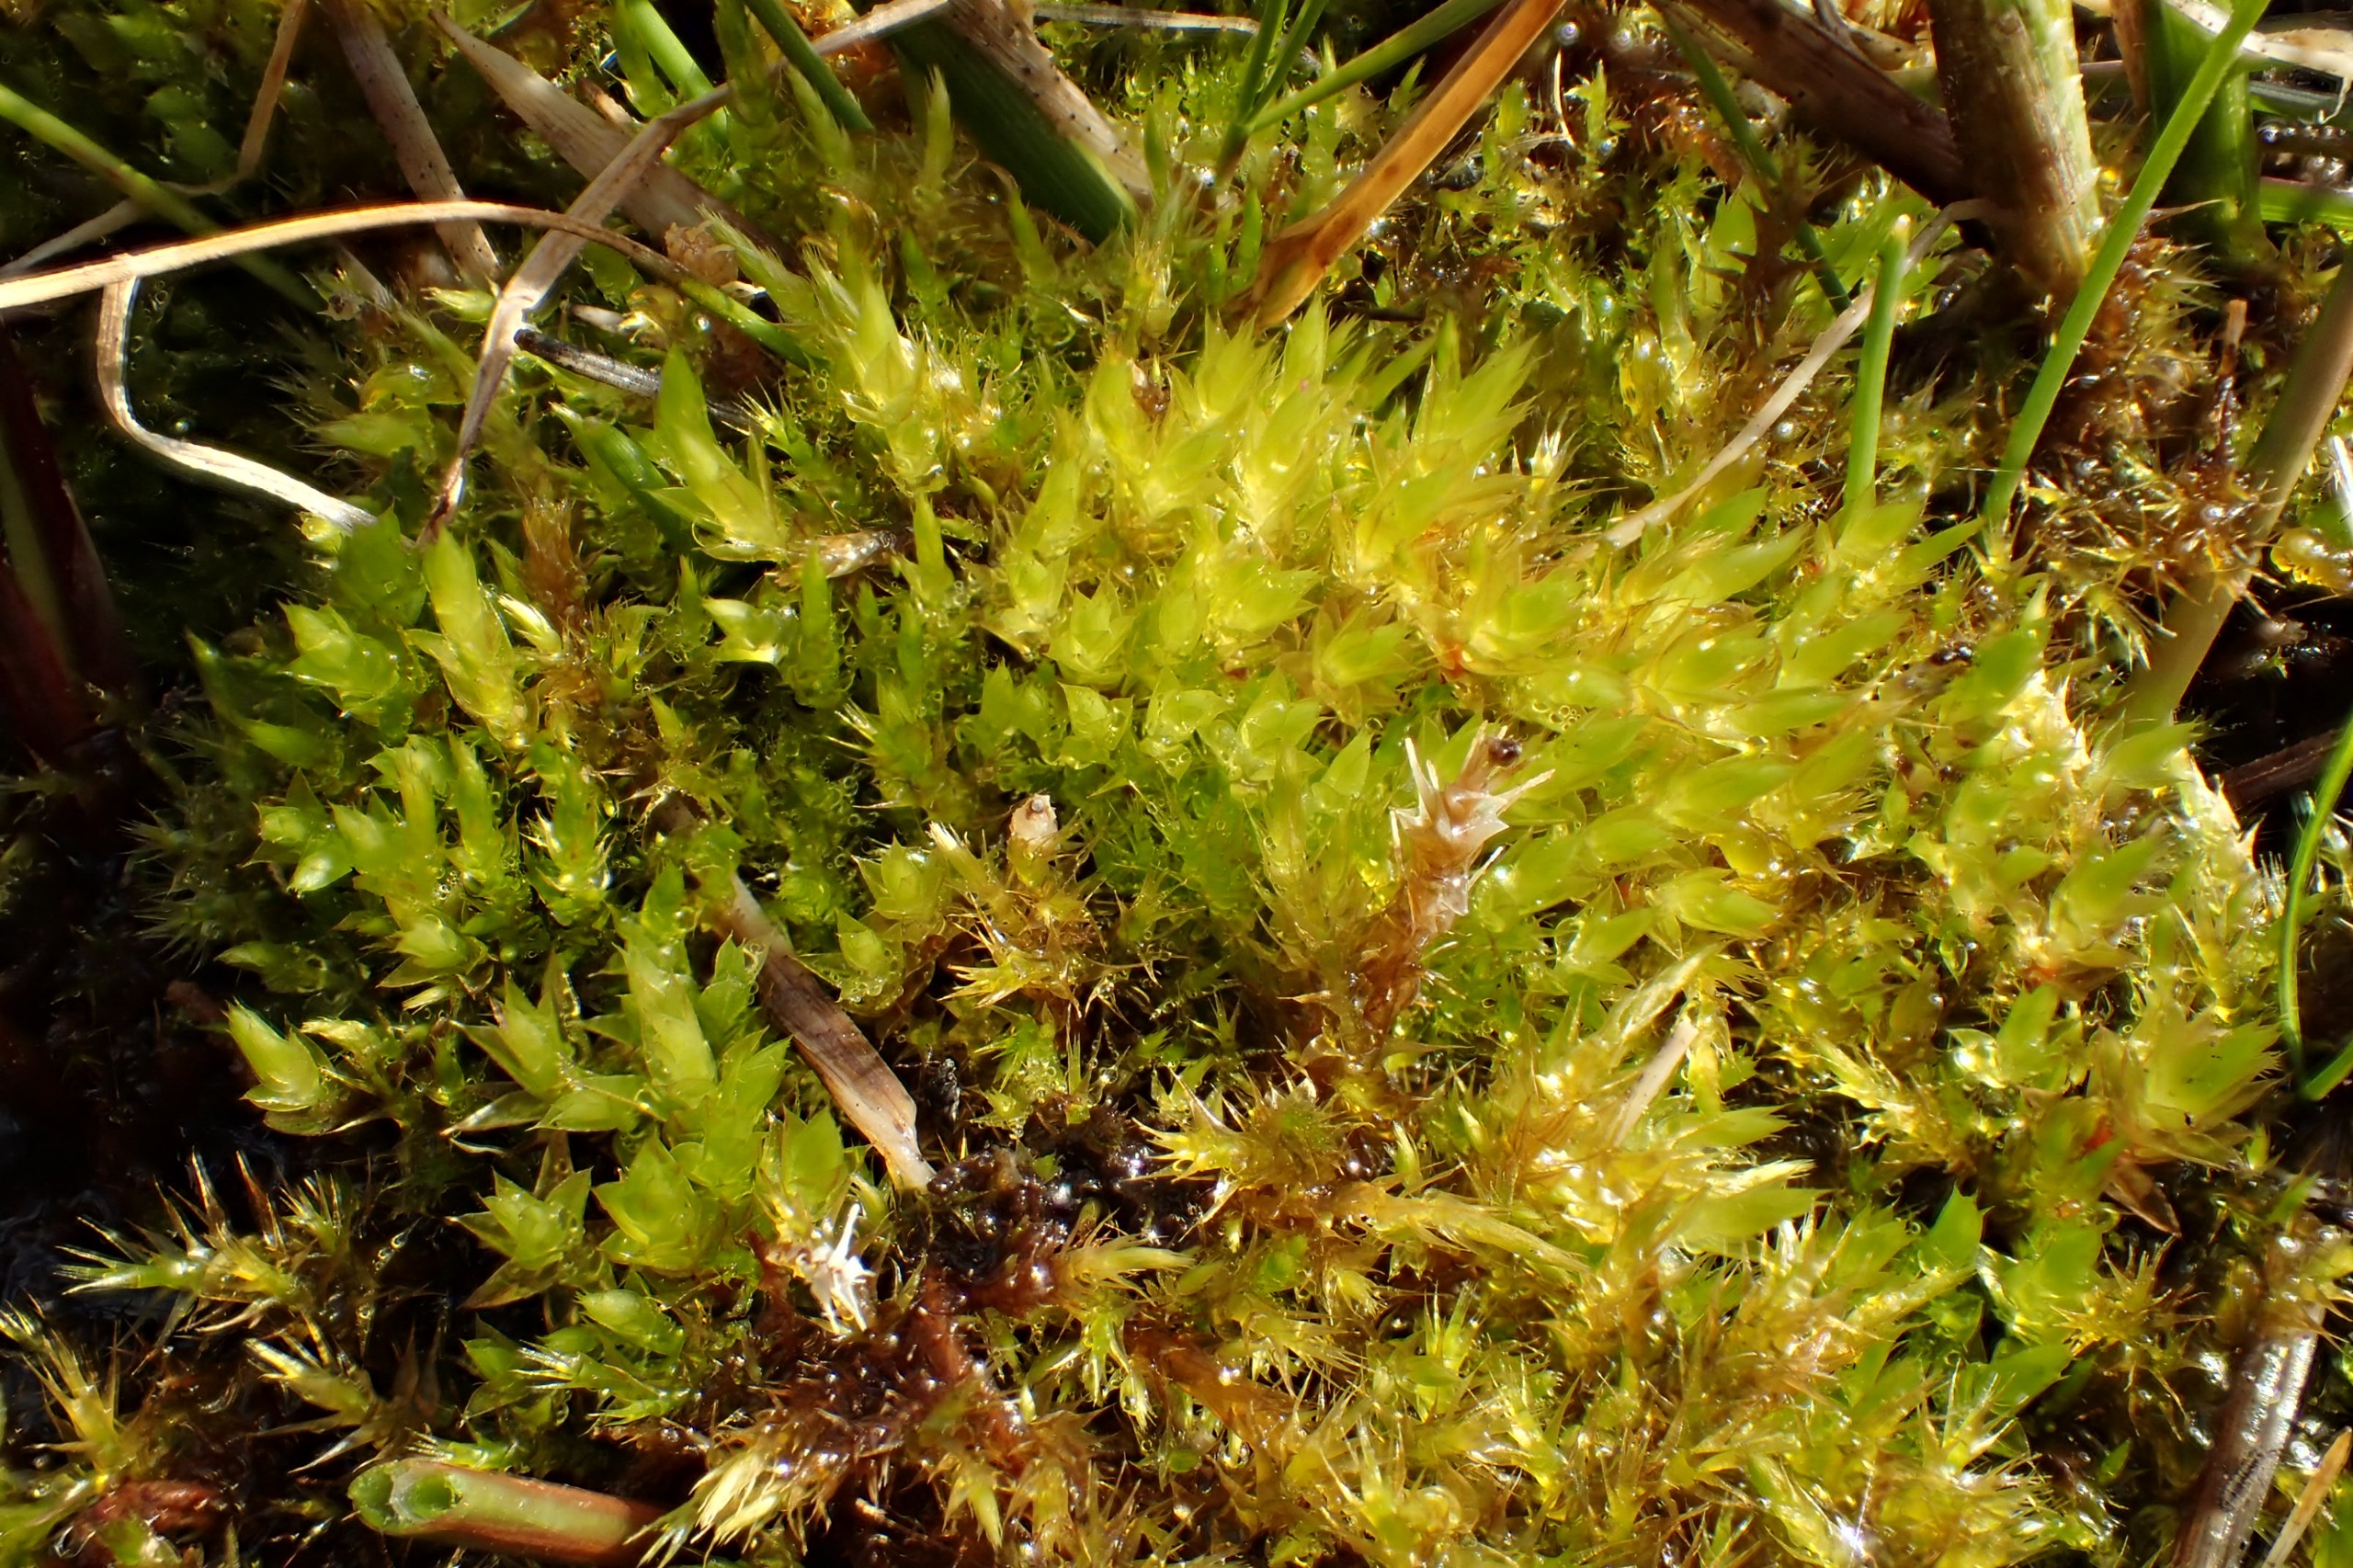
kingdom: Plantae
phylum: Bryophyta
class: Bryopsida
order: Bryales
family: Bryaceae
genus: Ptychostomum
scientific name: Ptychostomum pseudotriquetrum
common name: Nedløbende bryum
